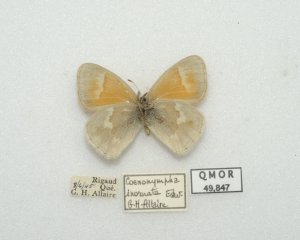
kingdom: Animalia
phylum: Arthropoda
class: Insecta
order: Lepidoptera
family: Nymphalidae
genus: Coenonympha
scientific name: Coenonympha tullia
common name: Large Heath
